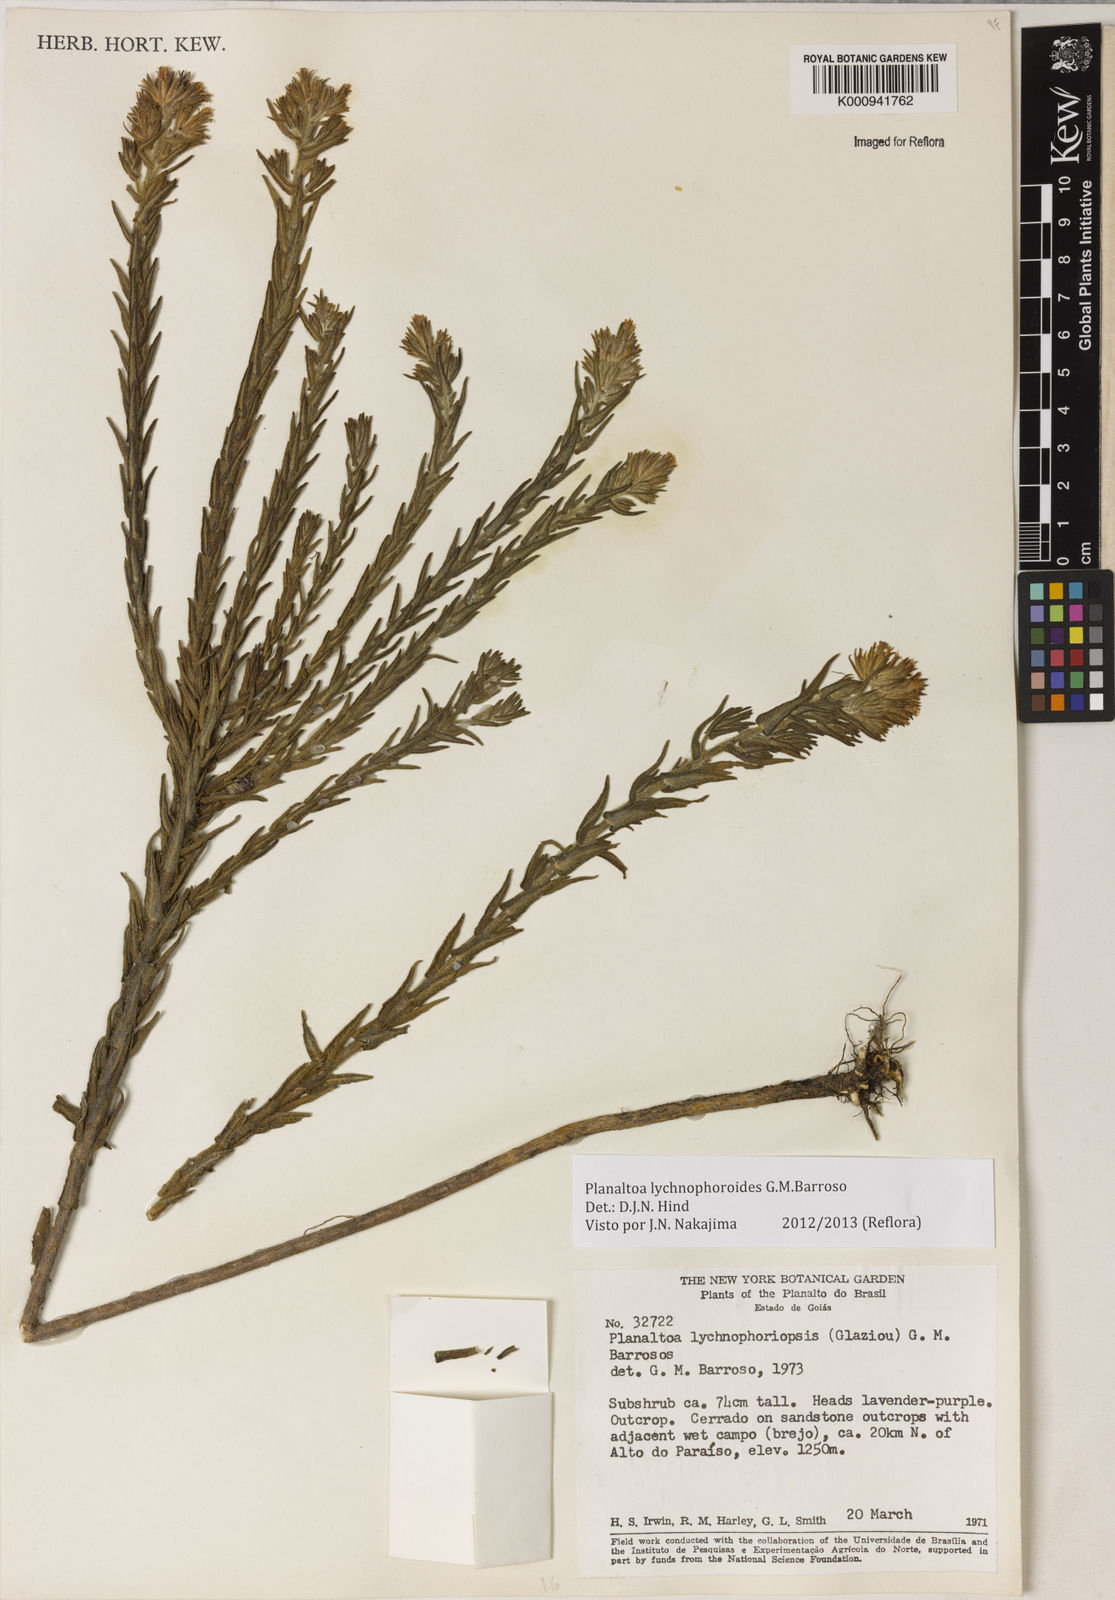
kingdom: Plantae
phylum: Tracheophyta
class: Magnoliopsida
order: Asterales
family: Asteraceae
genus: Planaltoa
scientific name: Planaltoa lychnophoroides
